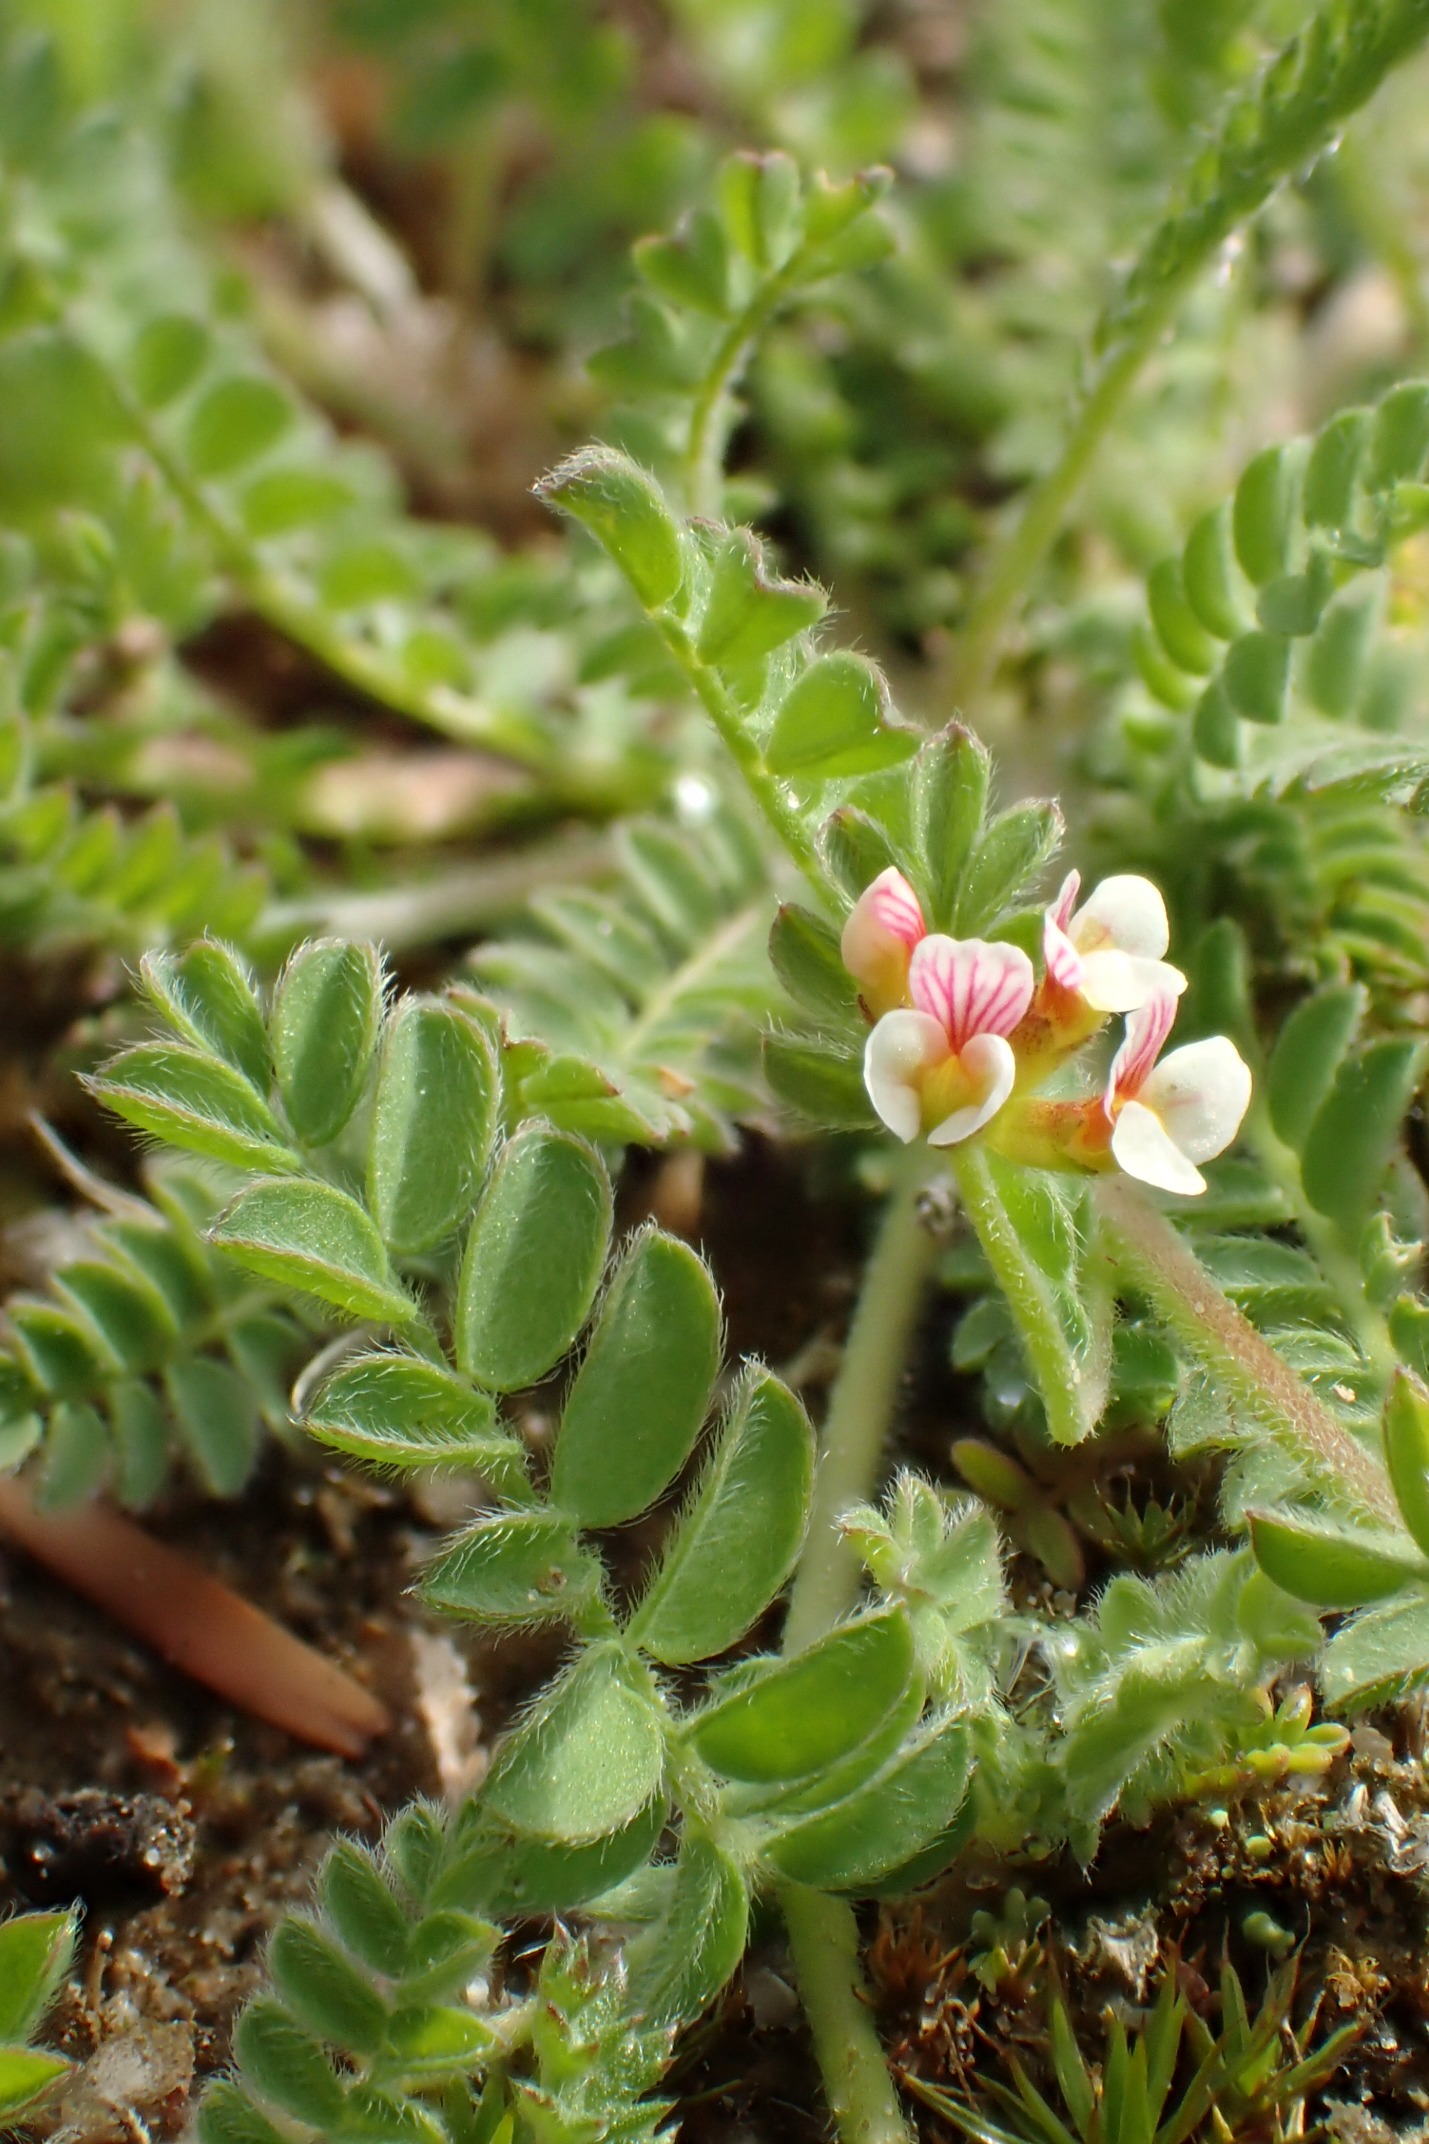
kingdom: Plantae
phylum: Tracheophyta
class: Magnoliopsida
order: Fabales
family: Fabaceae
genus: Ornithopus
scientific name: Ornithopus perpusillus
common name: Liden fugleklo
